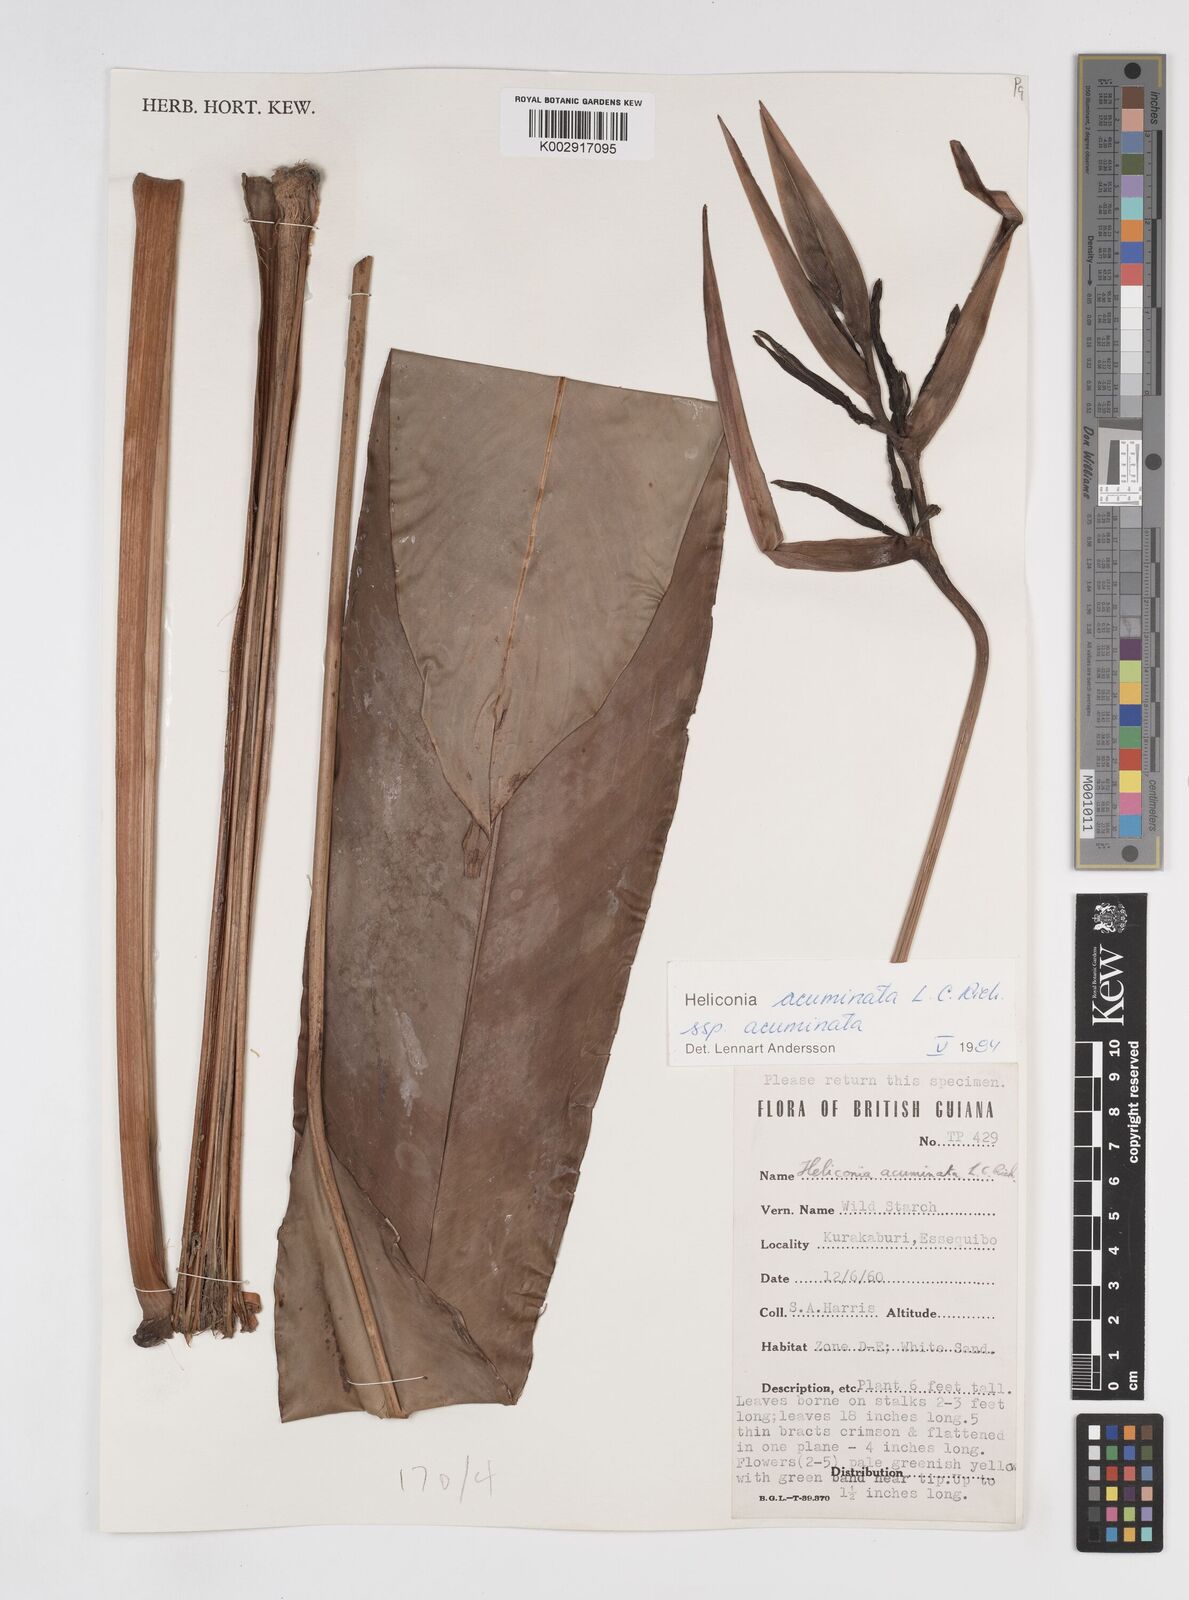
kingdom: Plantae
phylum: Tracheophyta
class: Liliopsida
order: Zingiberales
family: Heliconiaceae
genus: Heliconia
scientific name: Heliconia acuminata
